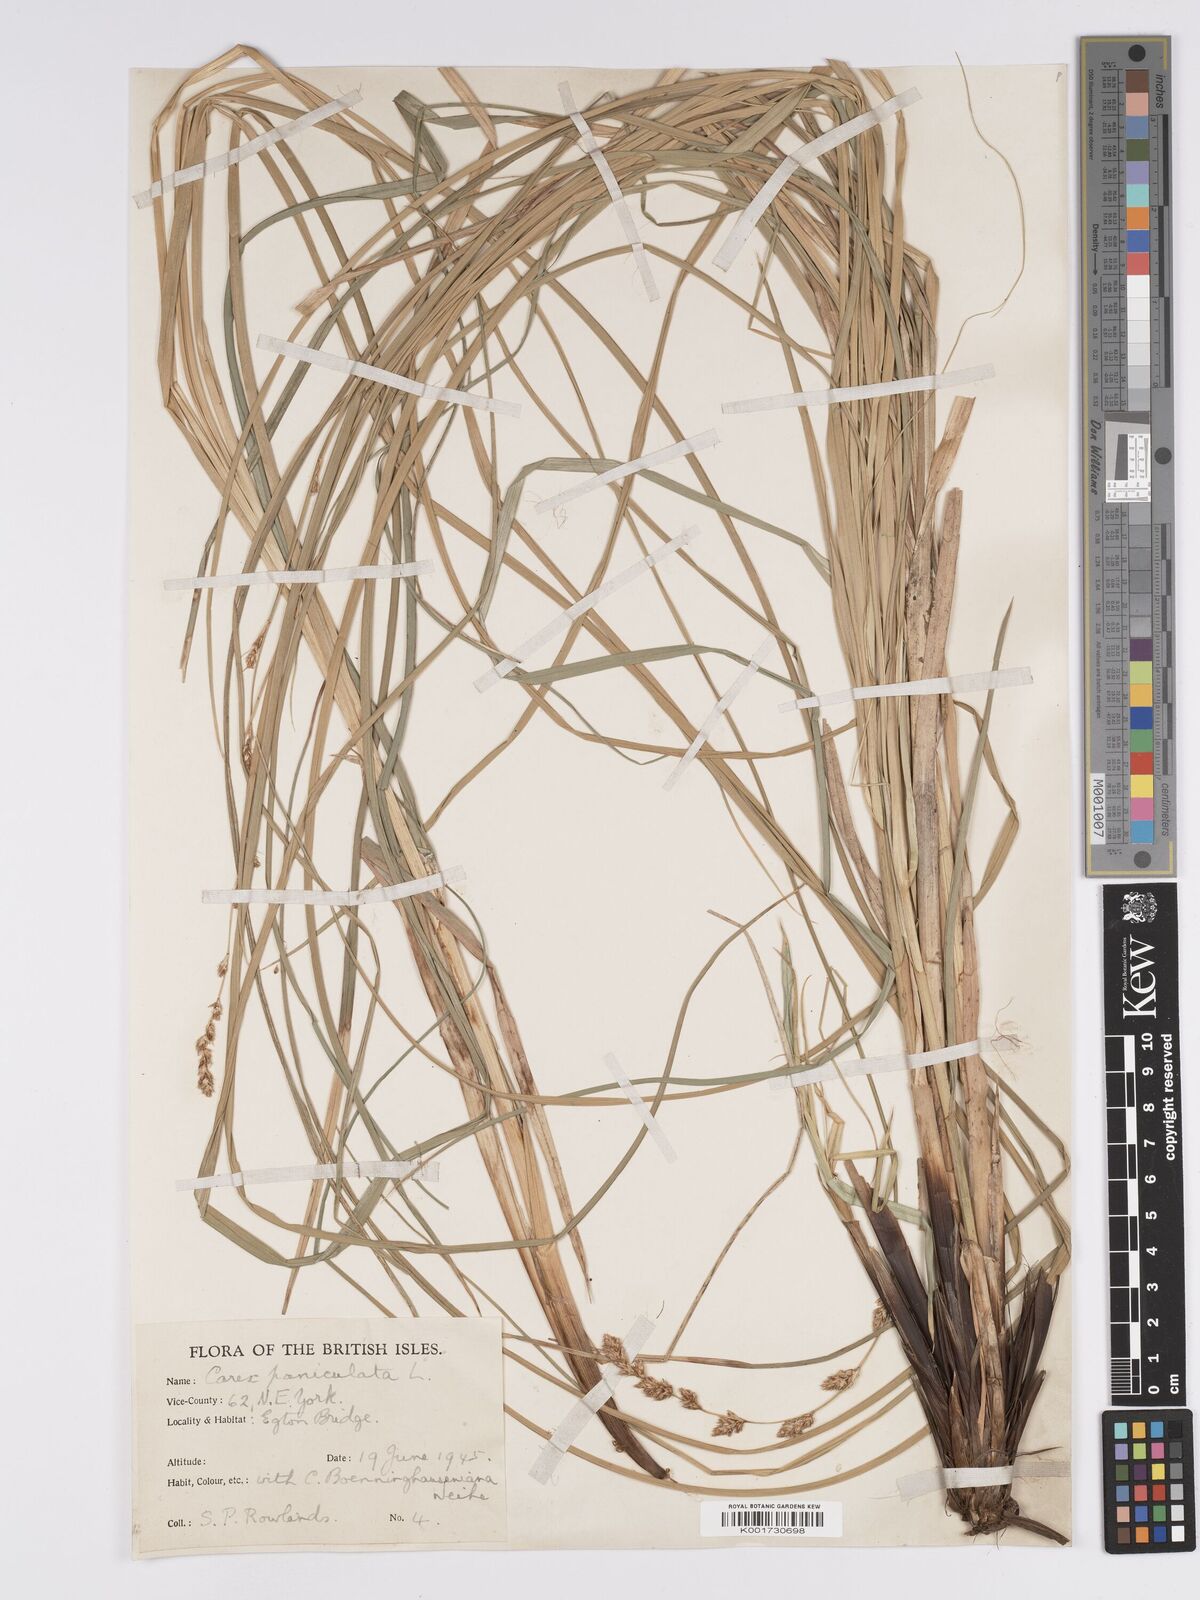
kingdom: Plantae
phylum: Tracheophyta
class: Liliopsida
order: Poales
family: Cyperaceae
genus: Carex
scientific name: Carex paniculata
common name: Greater tussock-sedge
